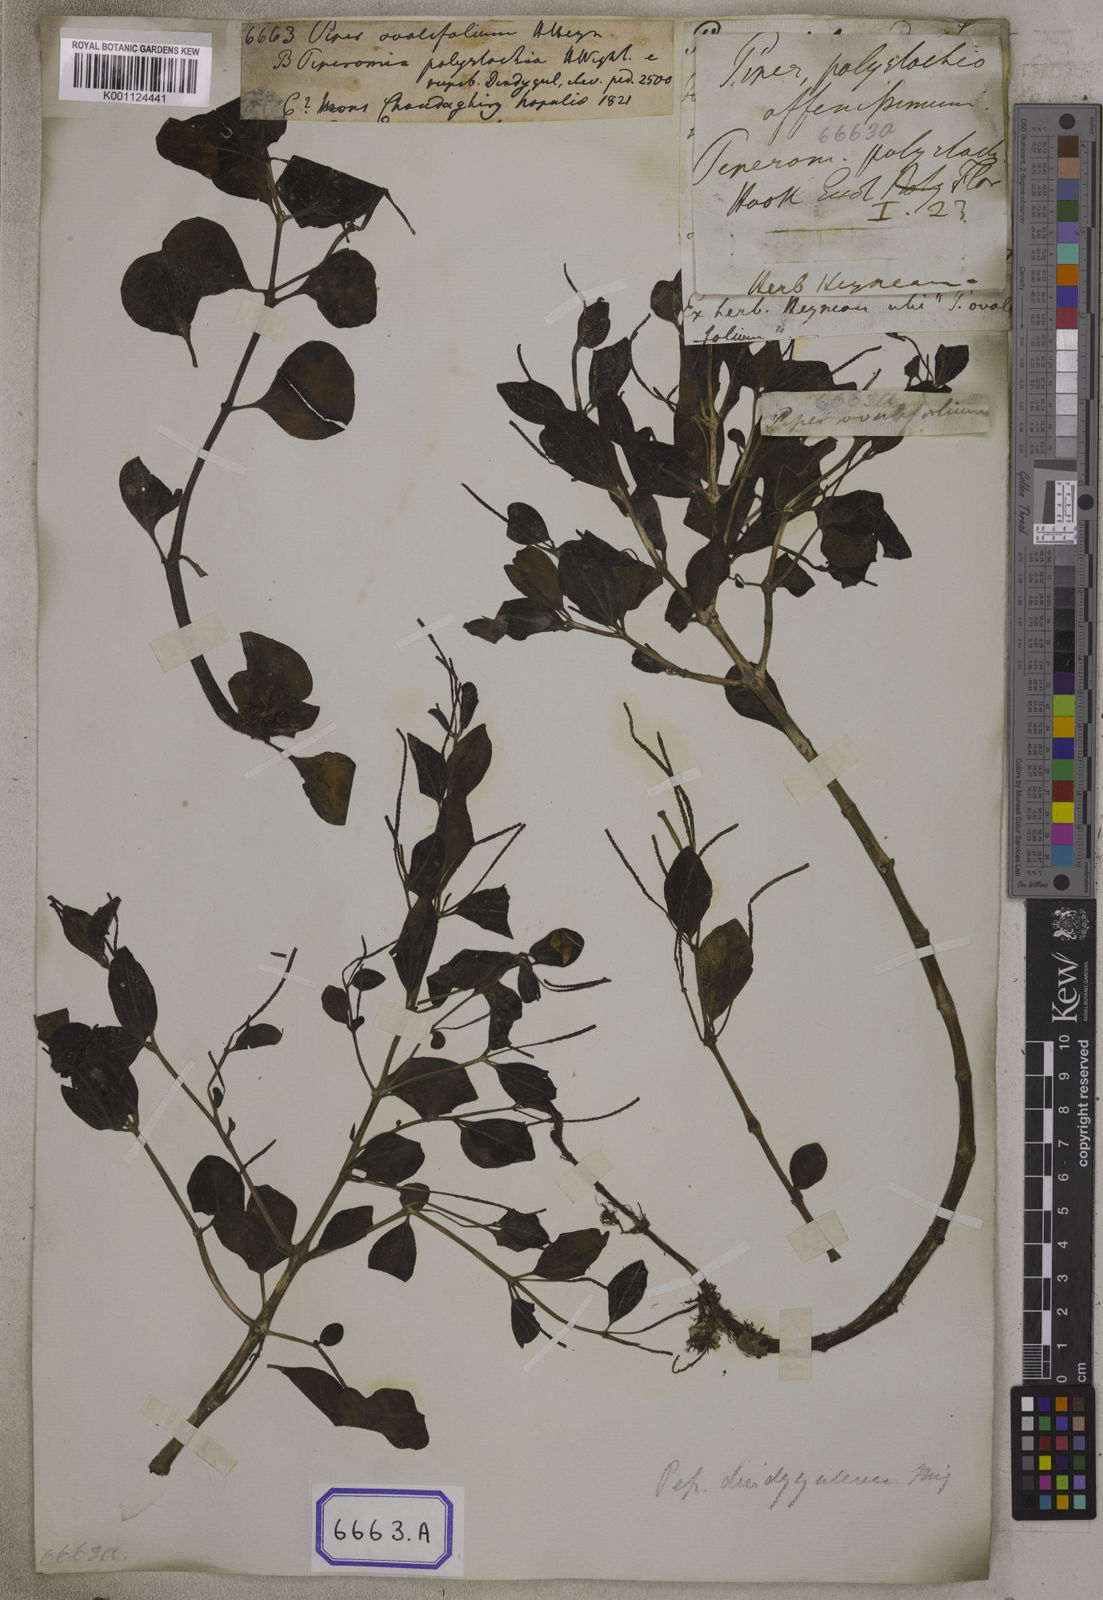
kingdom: Plantae
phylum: Tracheophyta
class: Magnoliopsida
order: Piperales
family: Piperaceae
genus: Peperomia
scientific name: Peperomia leptostachya
